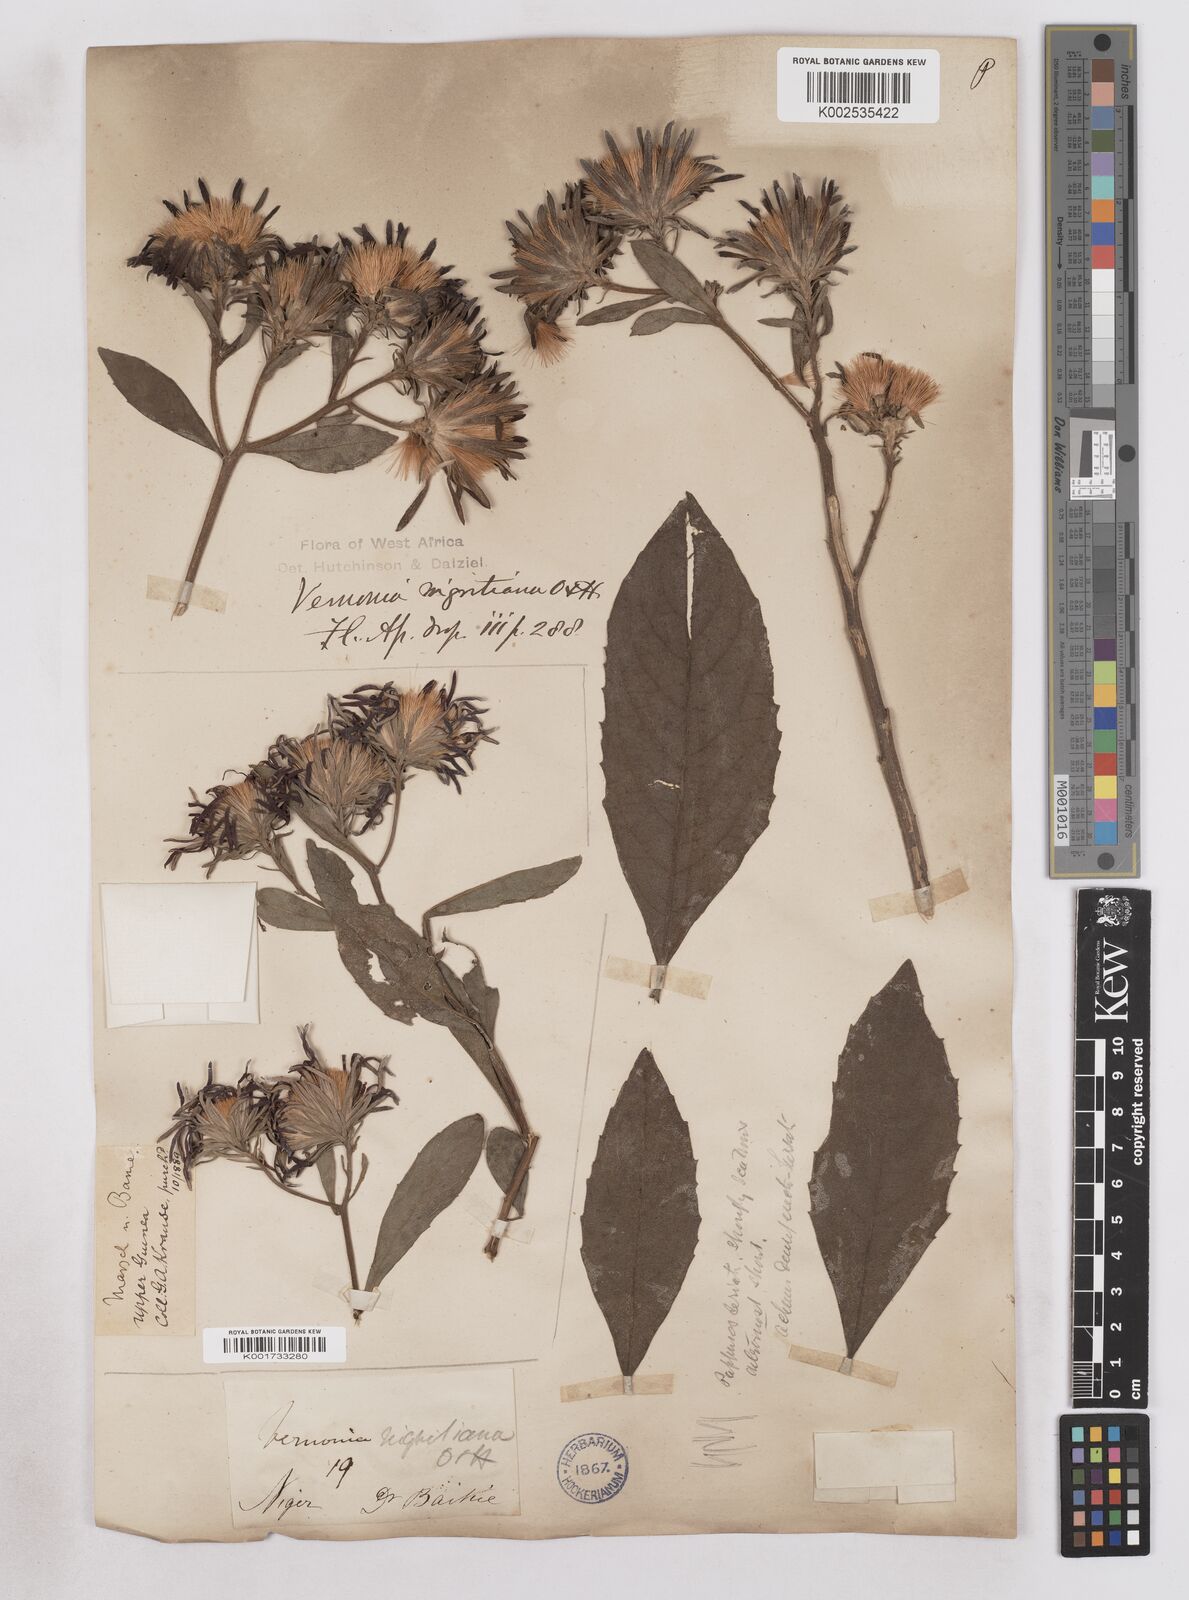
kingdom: Plantae
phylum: Tracheophyta
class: Magnoliopsida
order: Asterales
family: Asteraceae
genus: Linzia
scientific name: Linzia nigritiana
